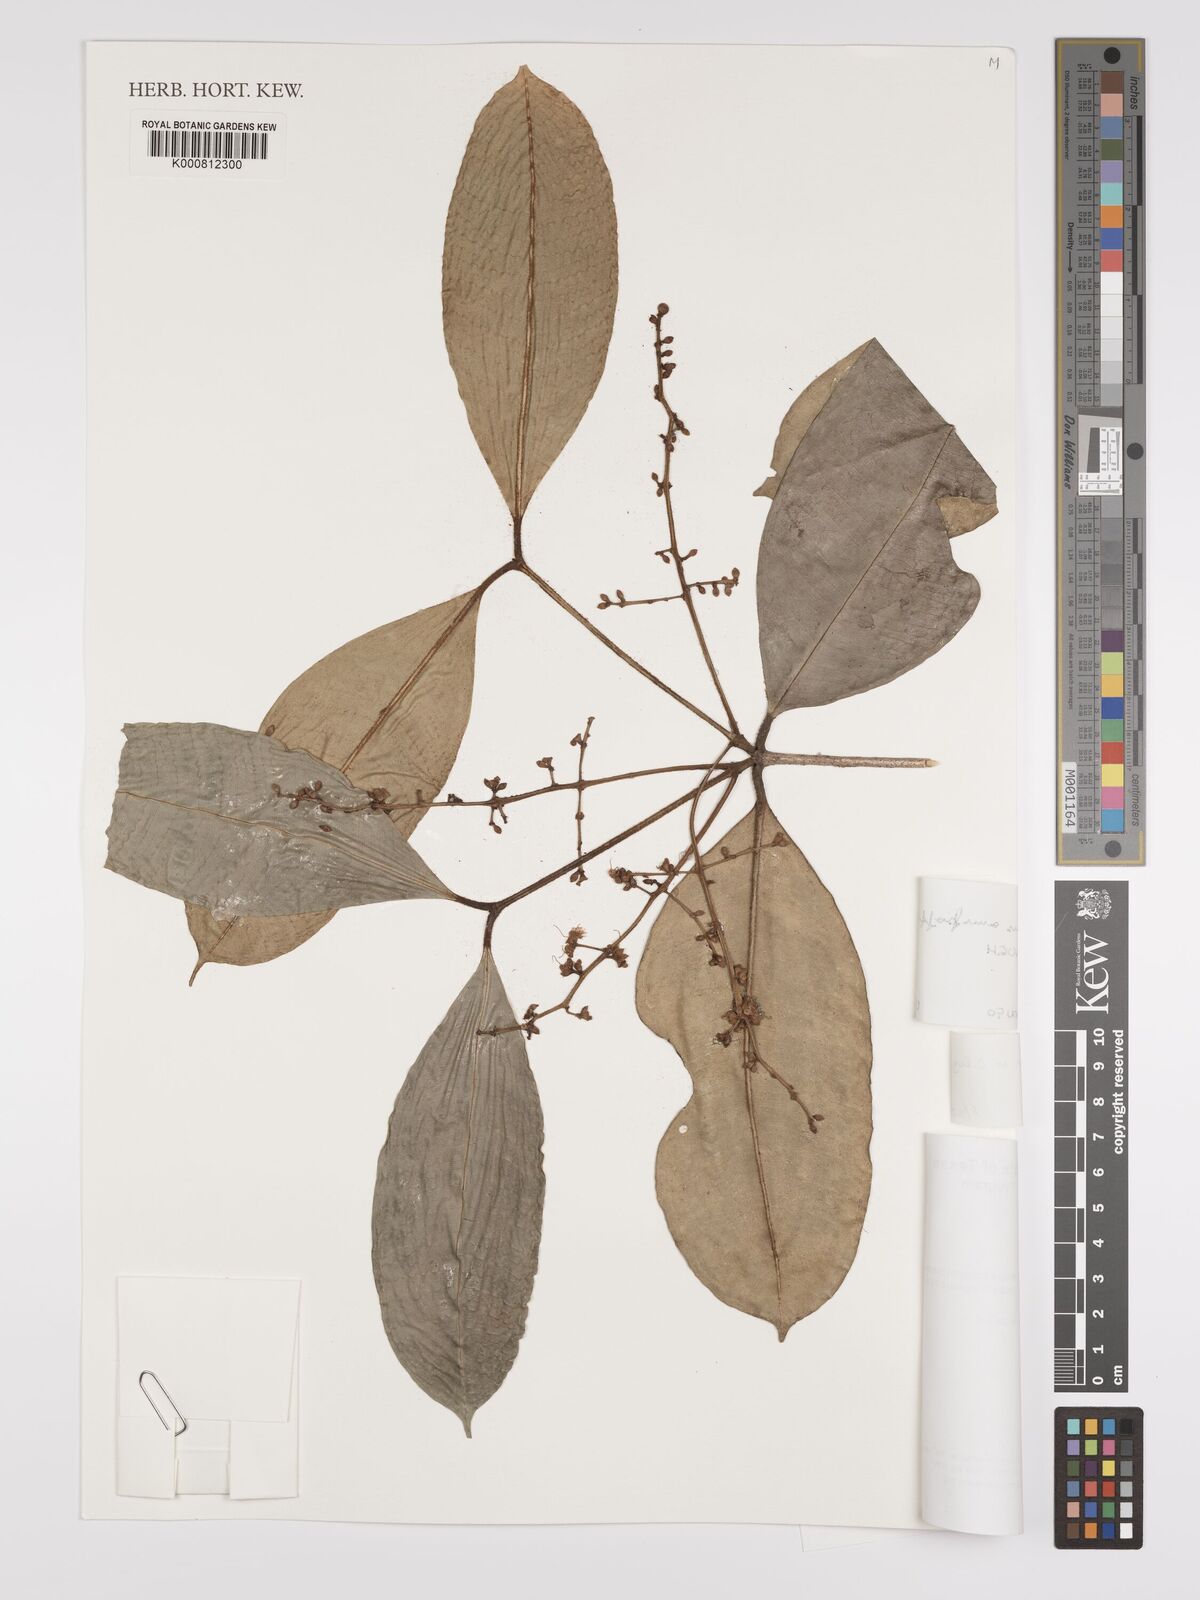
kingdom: Plantae
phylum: Tracheophyta
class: Magnoliopsida
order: Myrtales
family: Myrtaceae
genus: Eugenia
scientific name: Eugenia punicifolia
